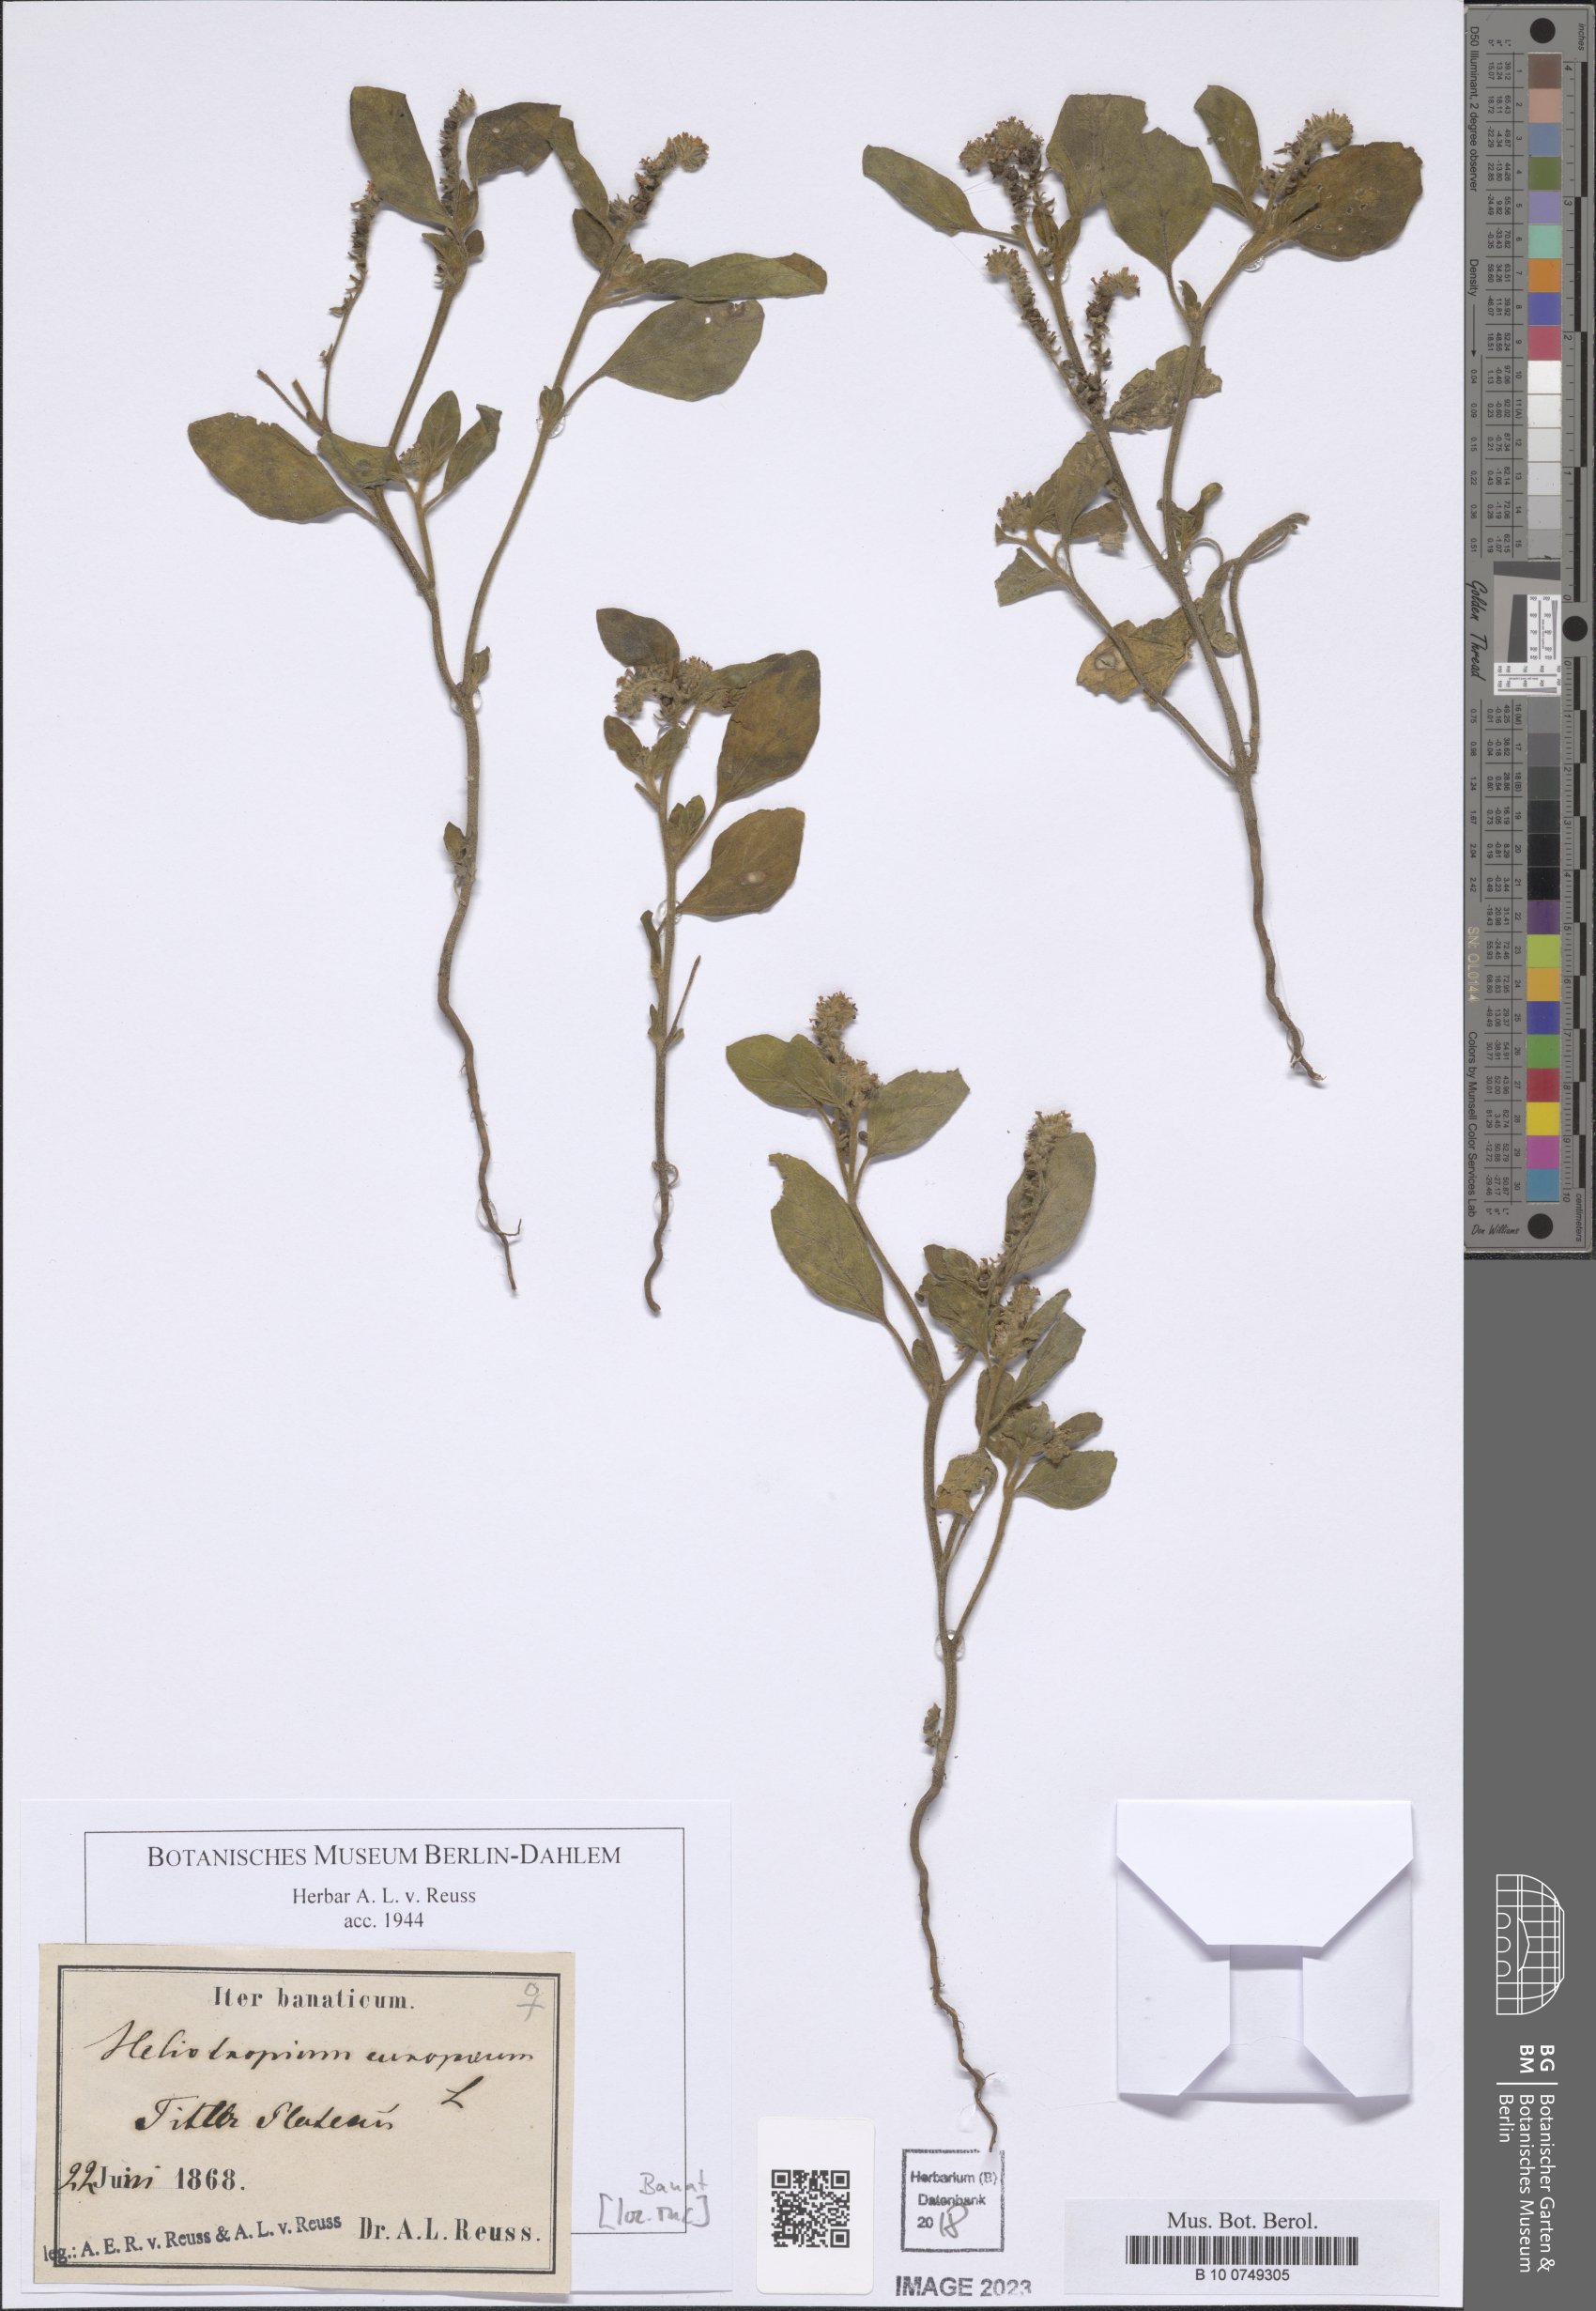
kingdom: Plantae
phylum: Tracheophyta
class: Magnoliopsida
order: Boraginales
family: Heliotropiaceae
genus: Heliotropium
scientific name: Heliotropium europaeum
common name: European heliotrope
